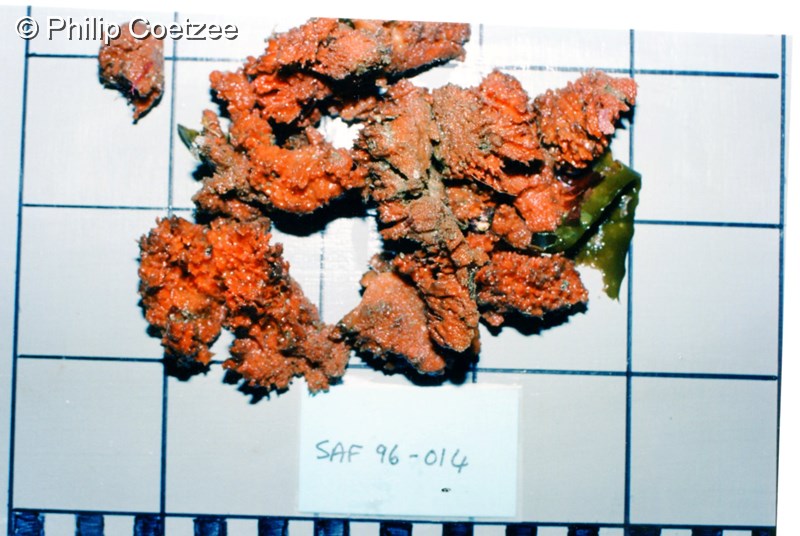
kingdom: Animalia
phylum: Porifera
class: Demospongiae
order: Clionaida
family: Placospongiidae
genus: Placospongia
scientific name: Placospongia
